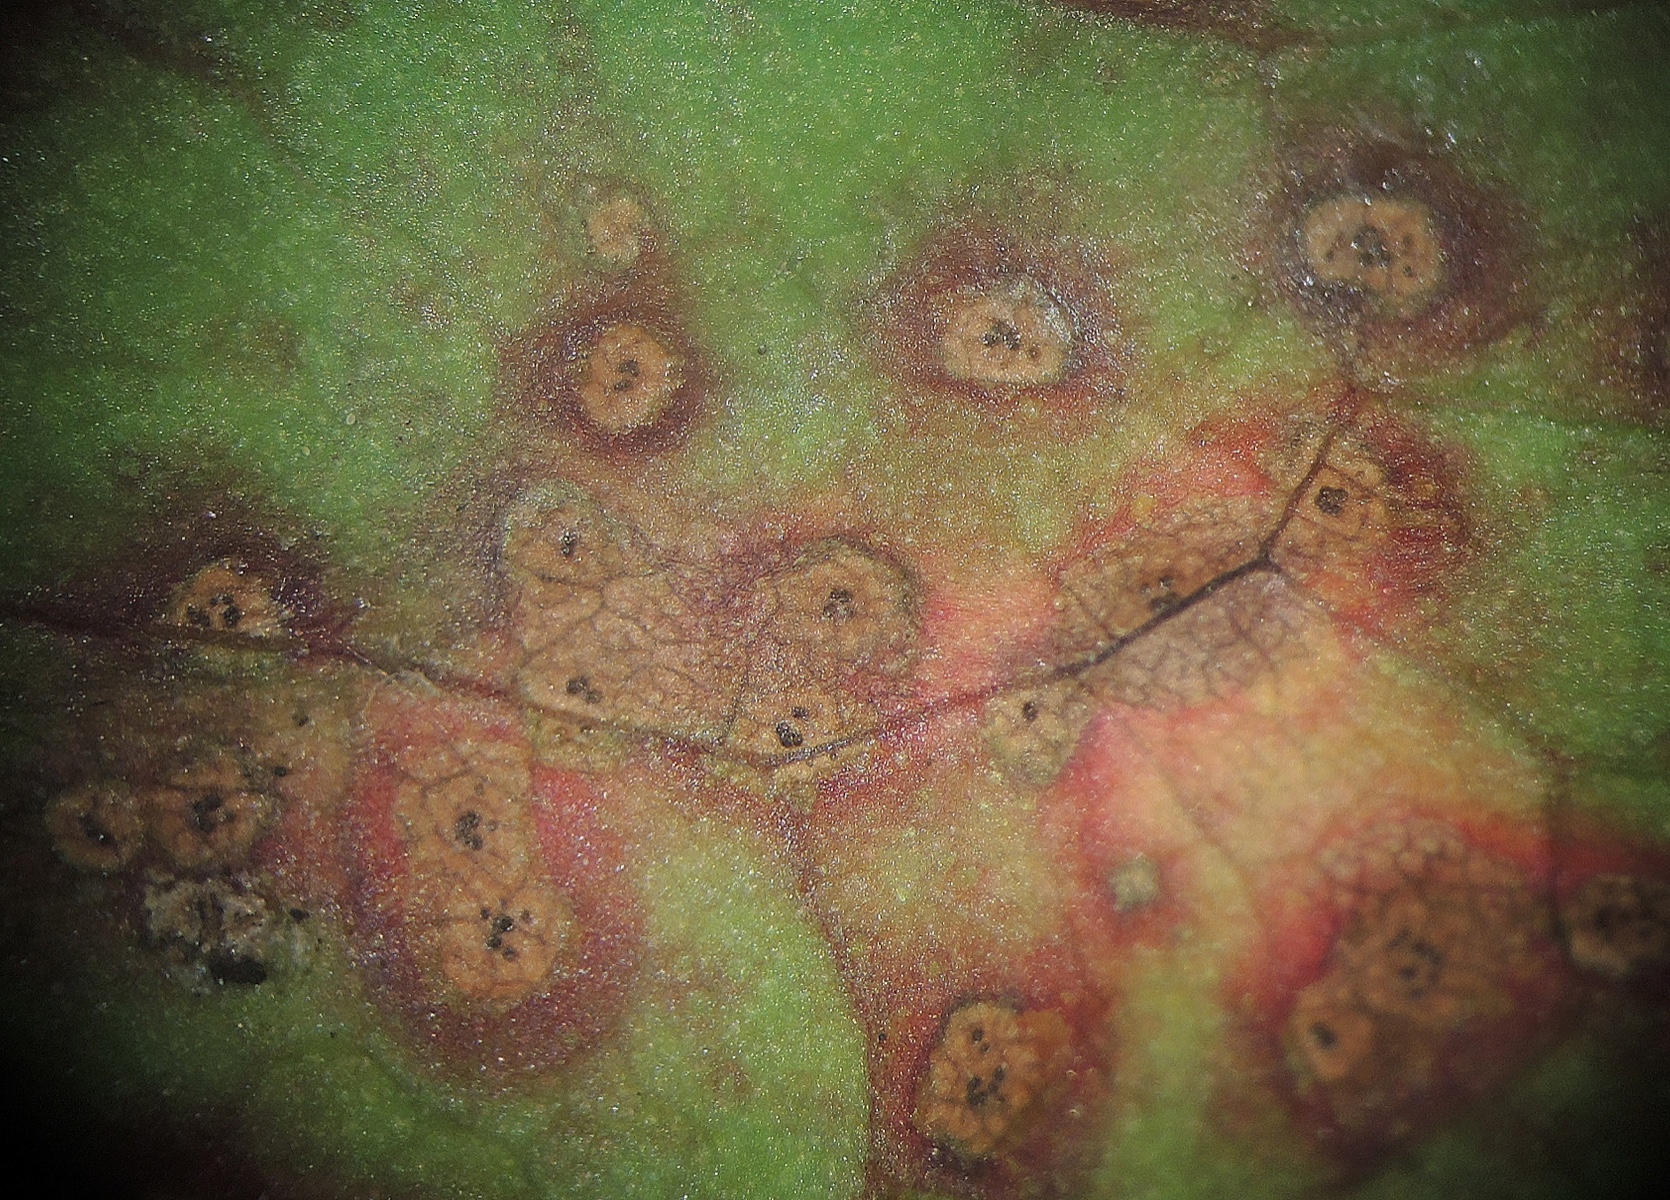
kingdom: Fungi
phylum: Ascomycota
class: Dothideomycetes
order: Venturiales
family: Venturiaceae
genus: Venturia
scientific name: Venturia rumicis
